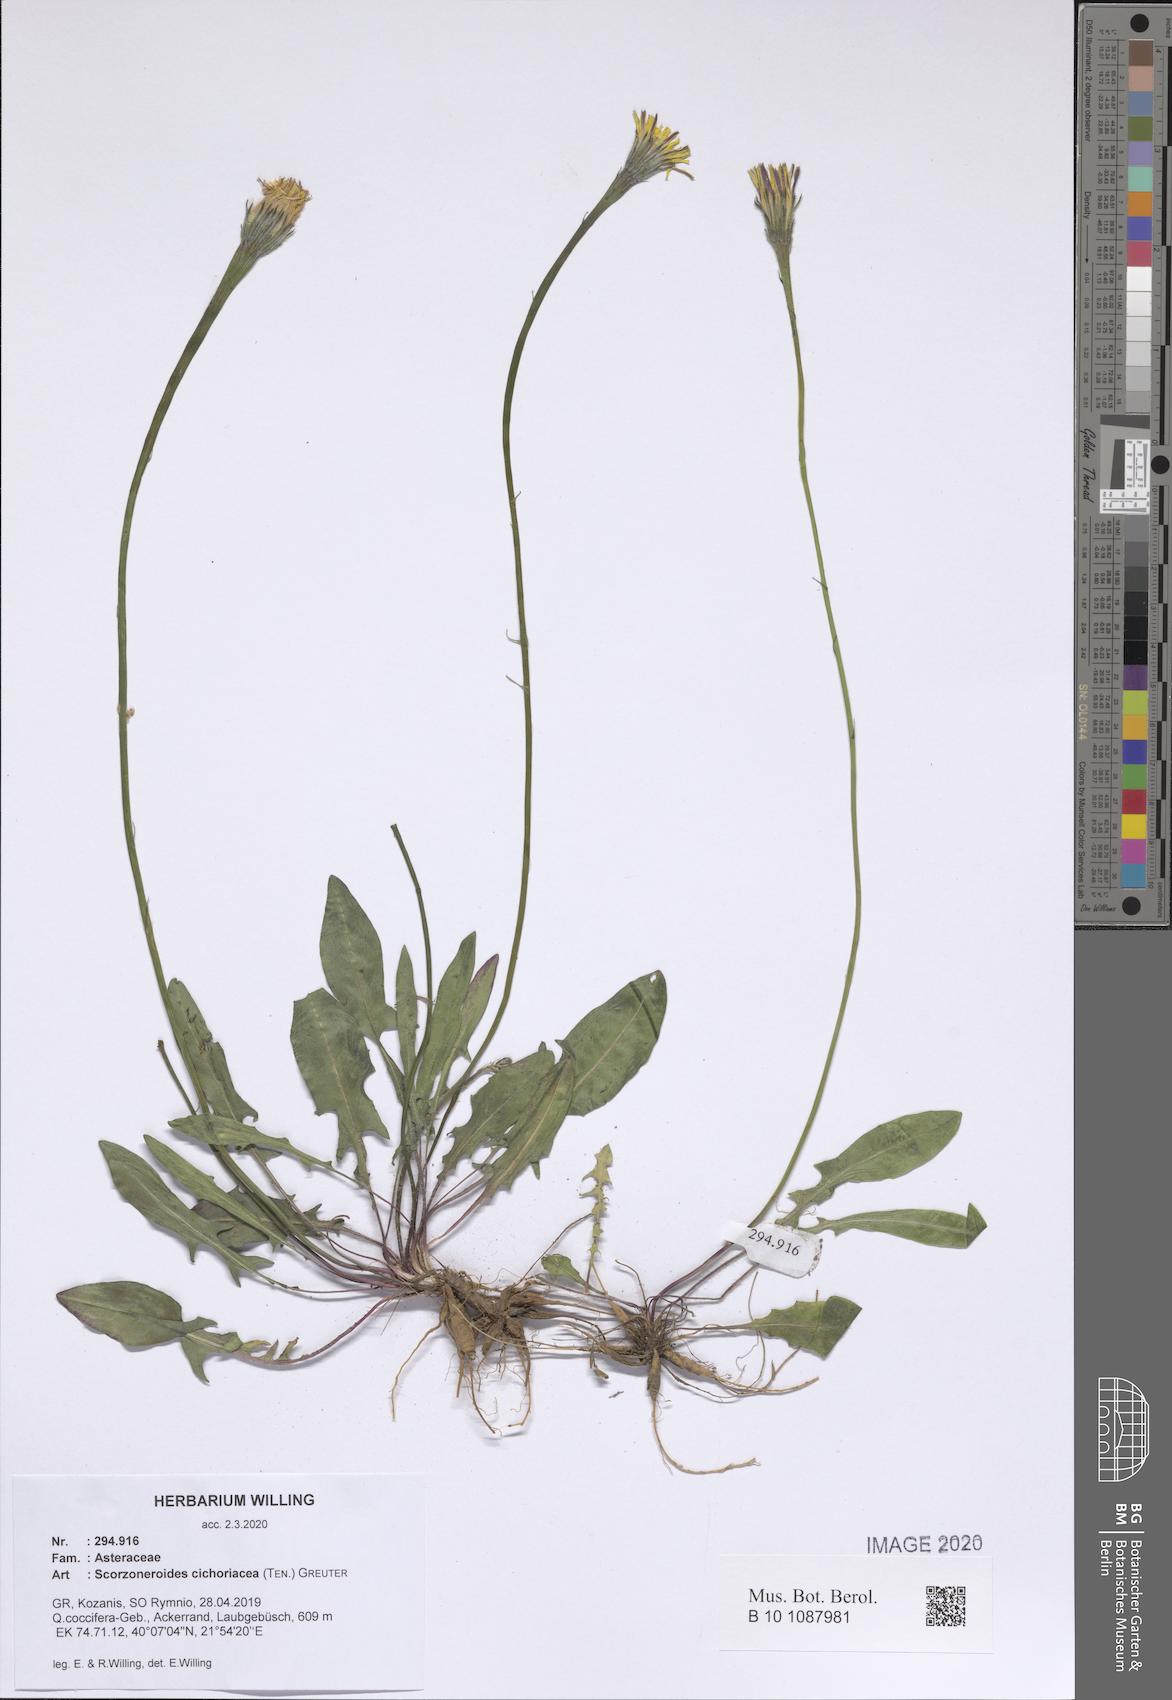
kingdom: Plantae
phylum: Tracheophyta
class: Magnoliopsida
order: Asterales
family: Asteraceae
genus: Scorzoneroides
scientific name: Scorzoneroides cichoriacea
